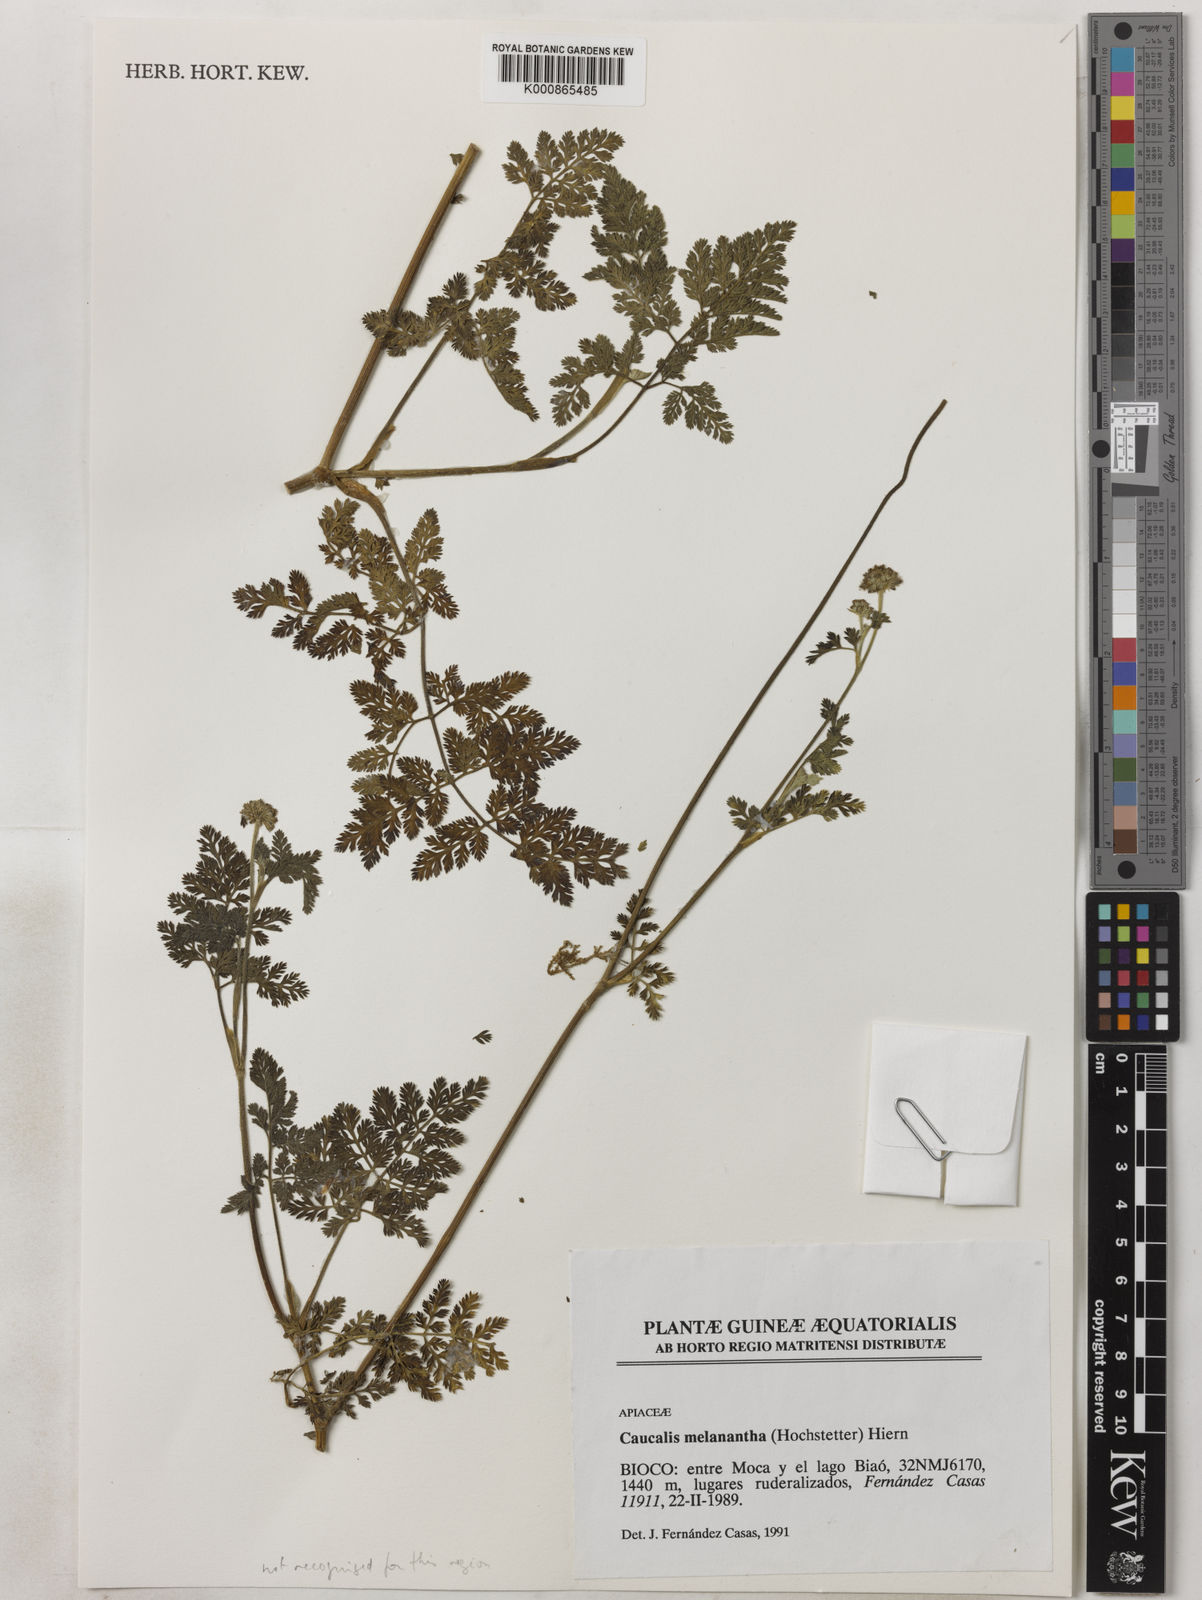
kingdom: Plantae
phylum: Tracheophyta
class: Magnoliopsida
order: Apiales
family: Apiaceae
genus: Daucus
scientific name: Daucus melananthus
